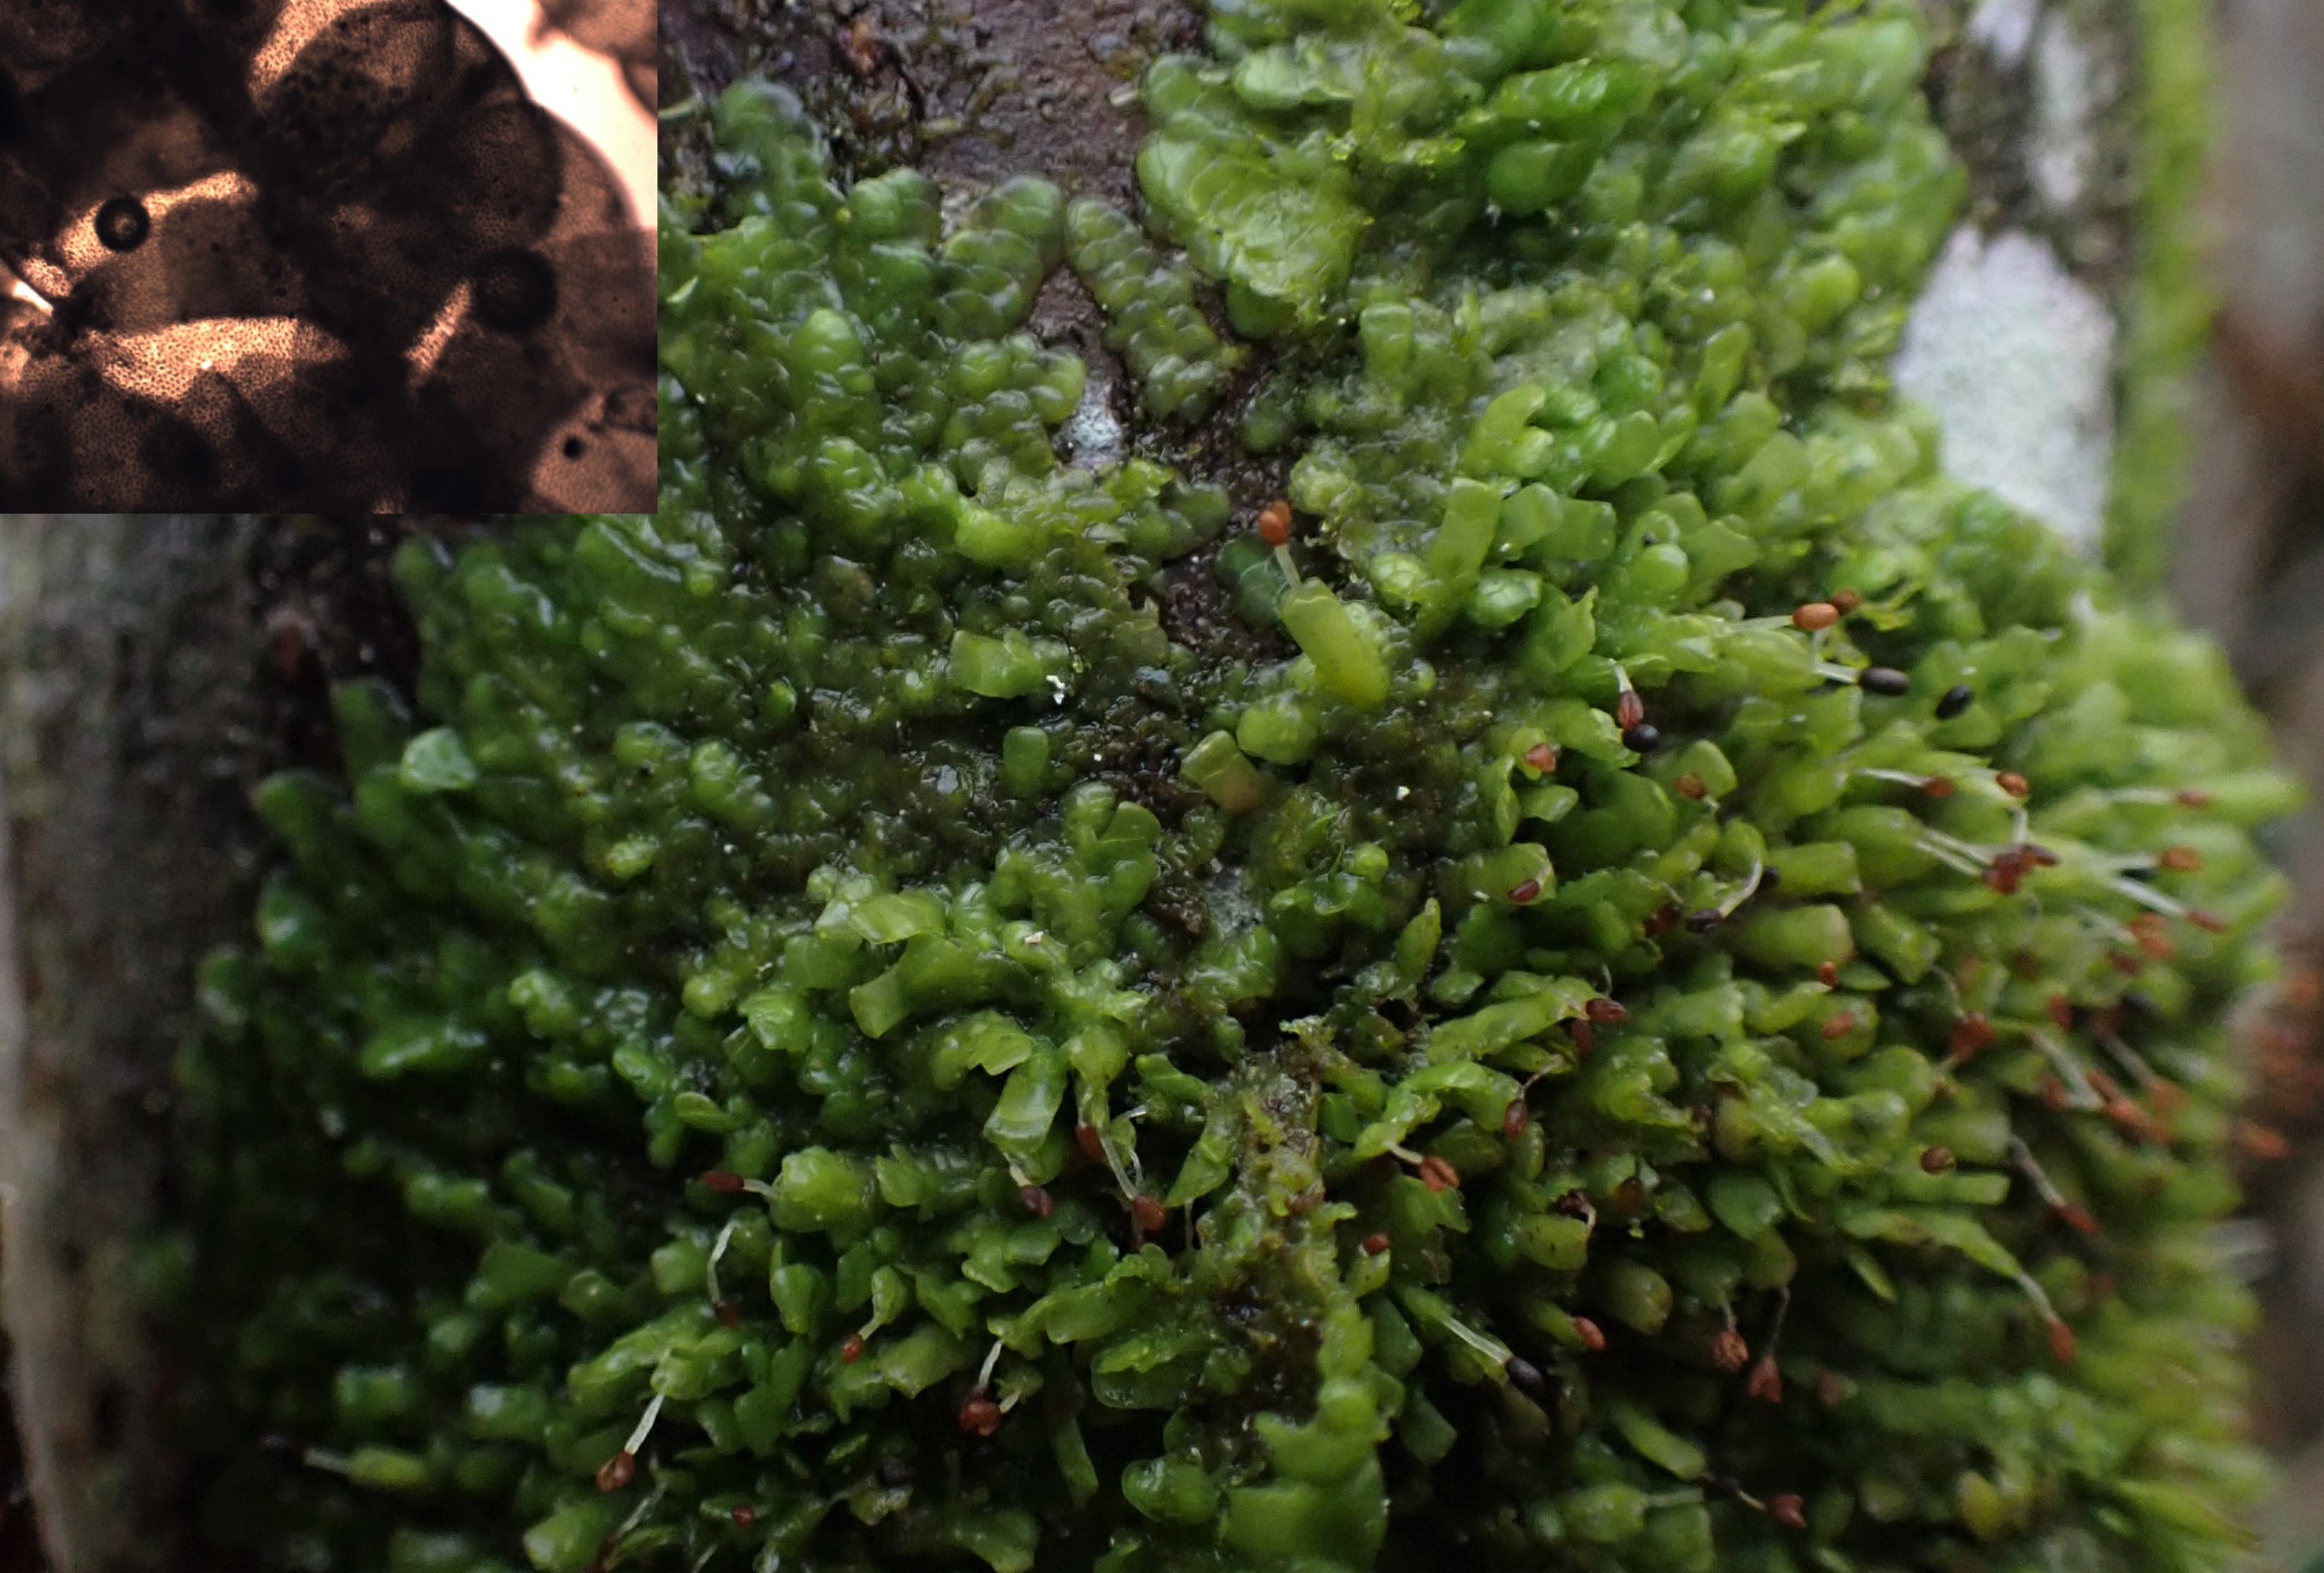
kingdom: Plantae
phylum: Marchantiophyta
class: Jungermanniopsida
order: Porellales
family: Radulaceae
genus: Radula
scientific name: Radula complanata
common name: Almindelig spartelmos
